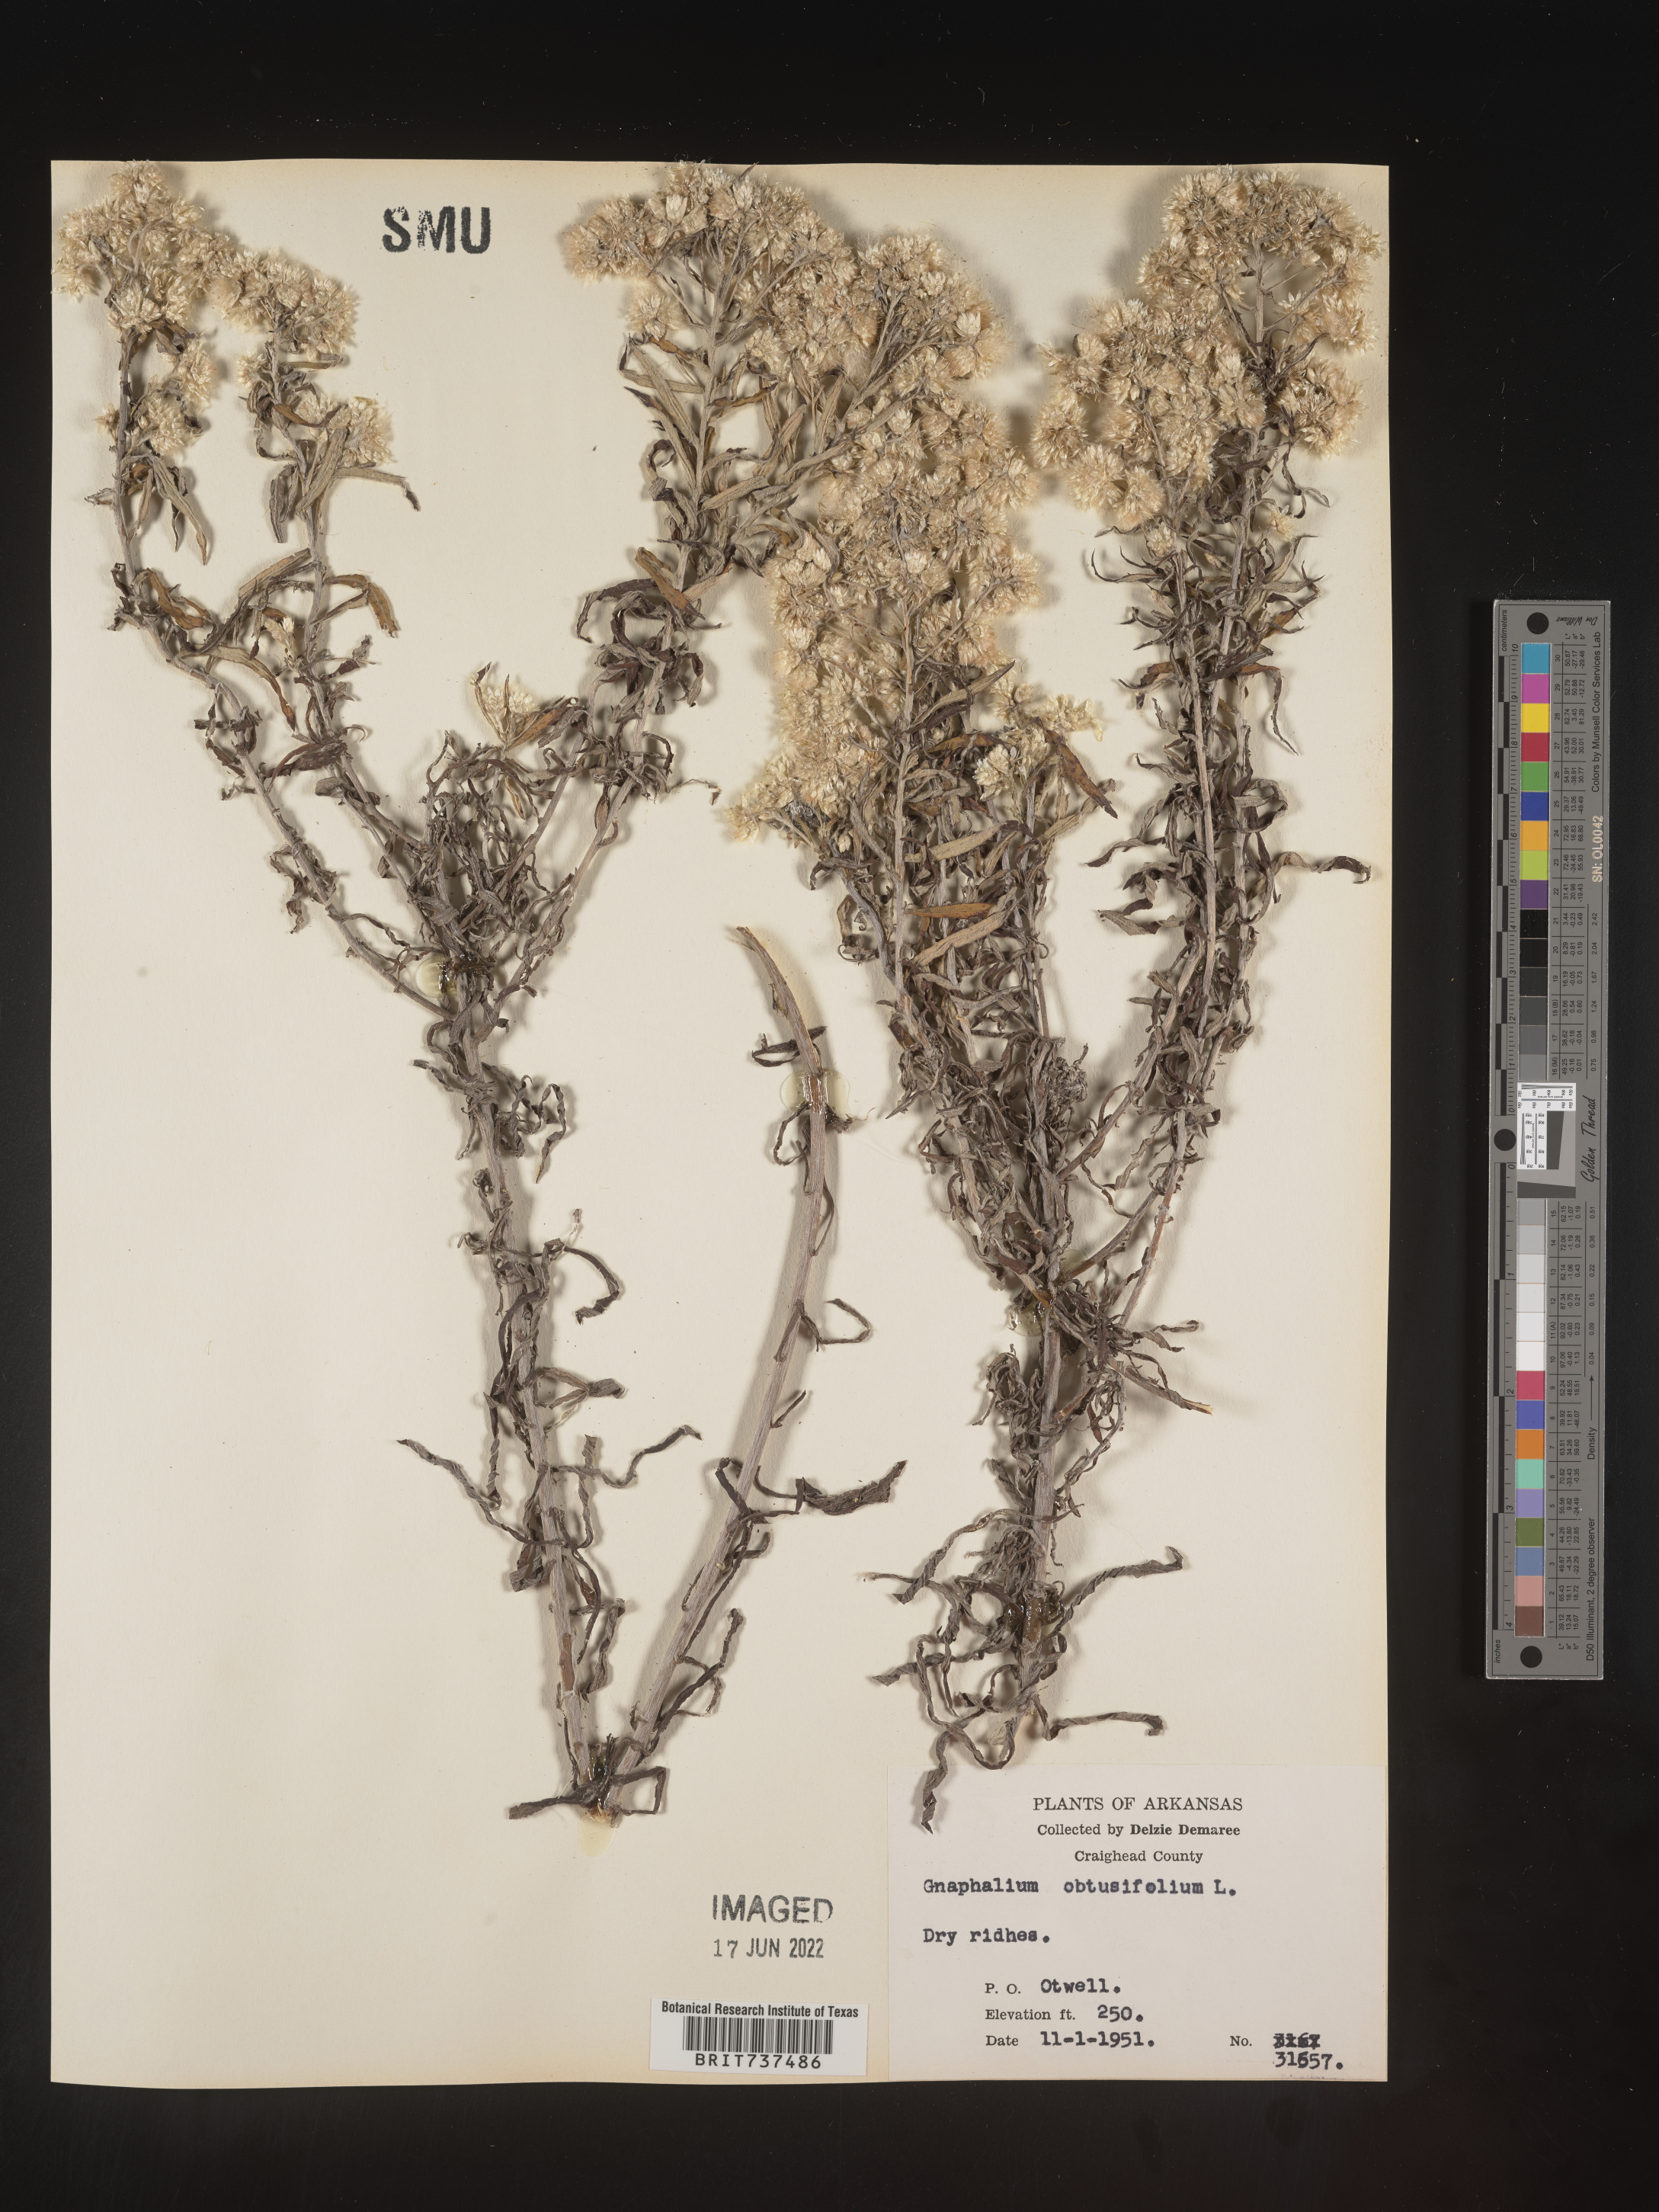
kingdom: Plantae
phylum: Tracheophyta
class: Magnoliopsida
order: Asterales
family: Asteraceae
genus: Pseudognaphalium
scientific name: Pseudognaphalium obtusifolium
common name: Eastern rabbit-tobacco
